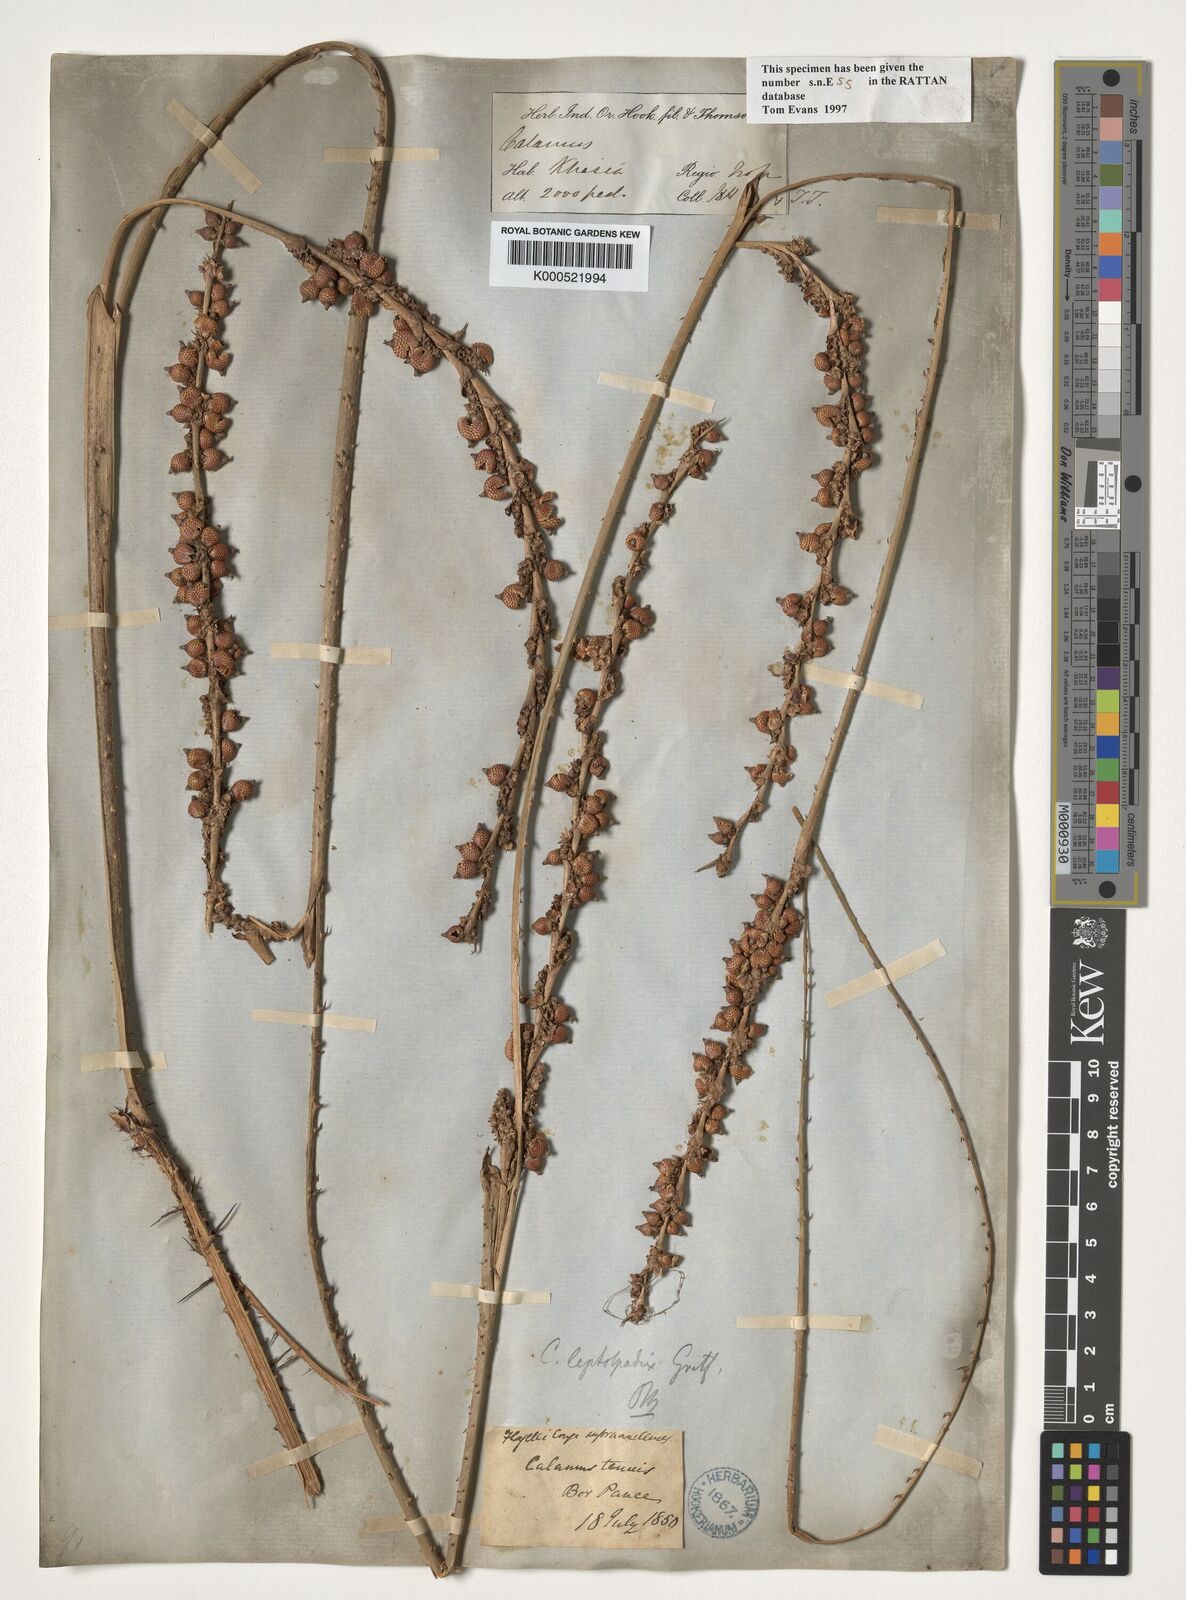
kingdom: Plantae
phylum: Tracheophyta
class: Liliopsida
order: Arecales
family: Arecaceae
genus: Calamus
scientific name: Calamus leptospadix
